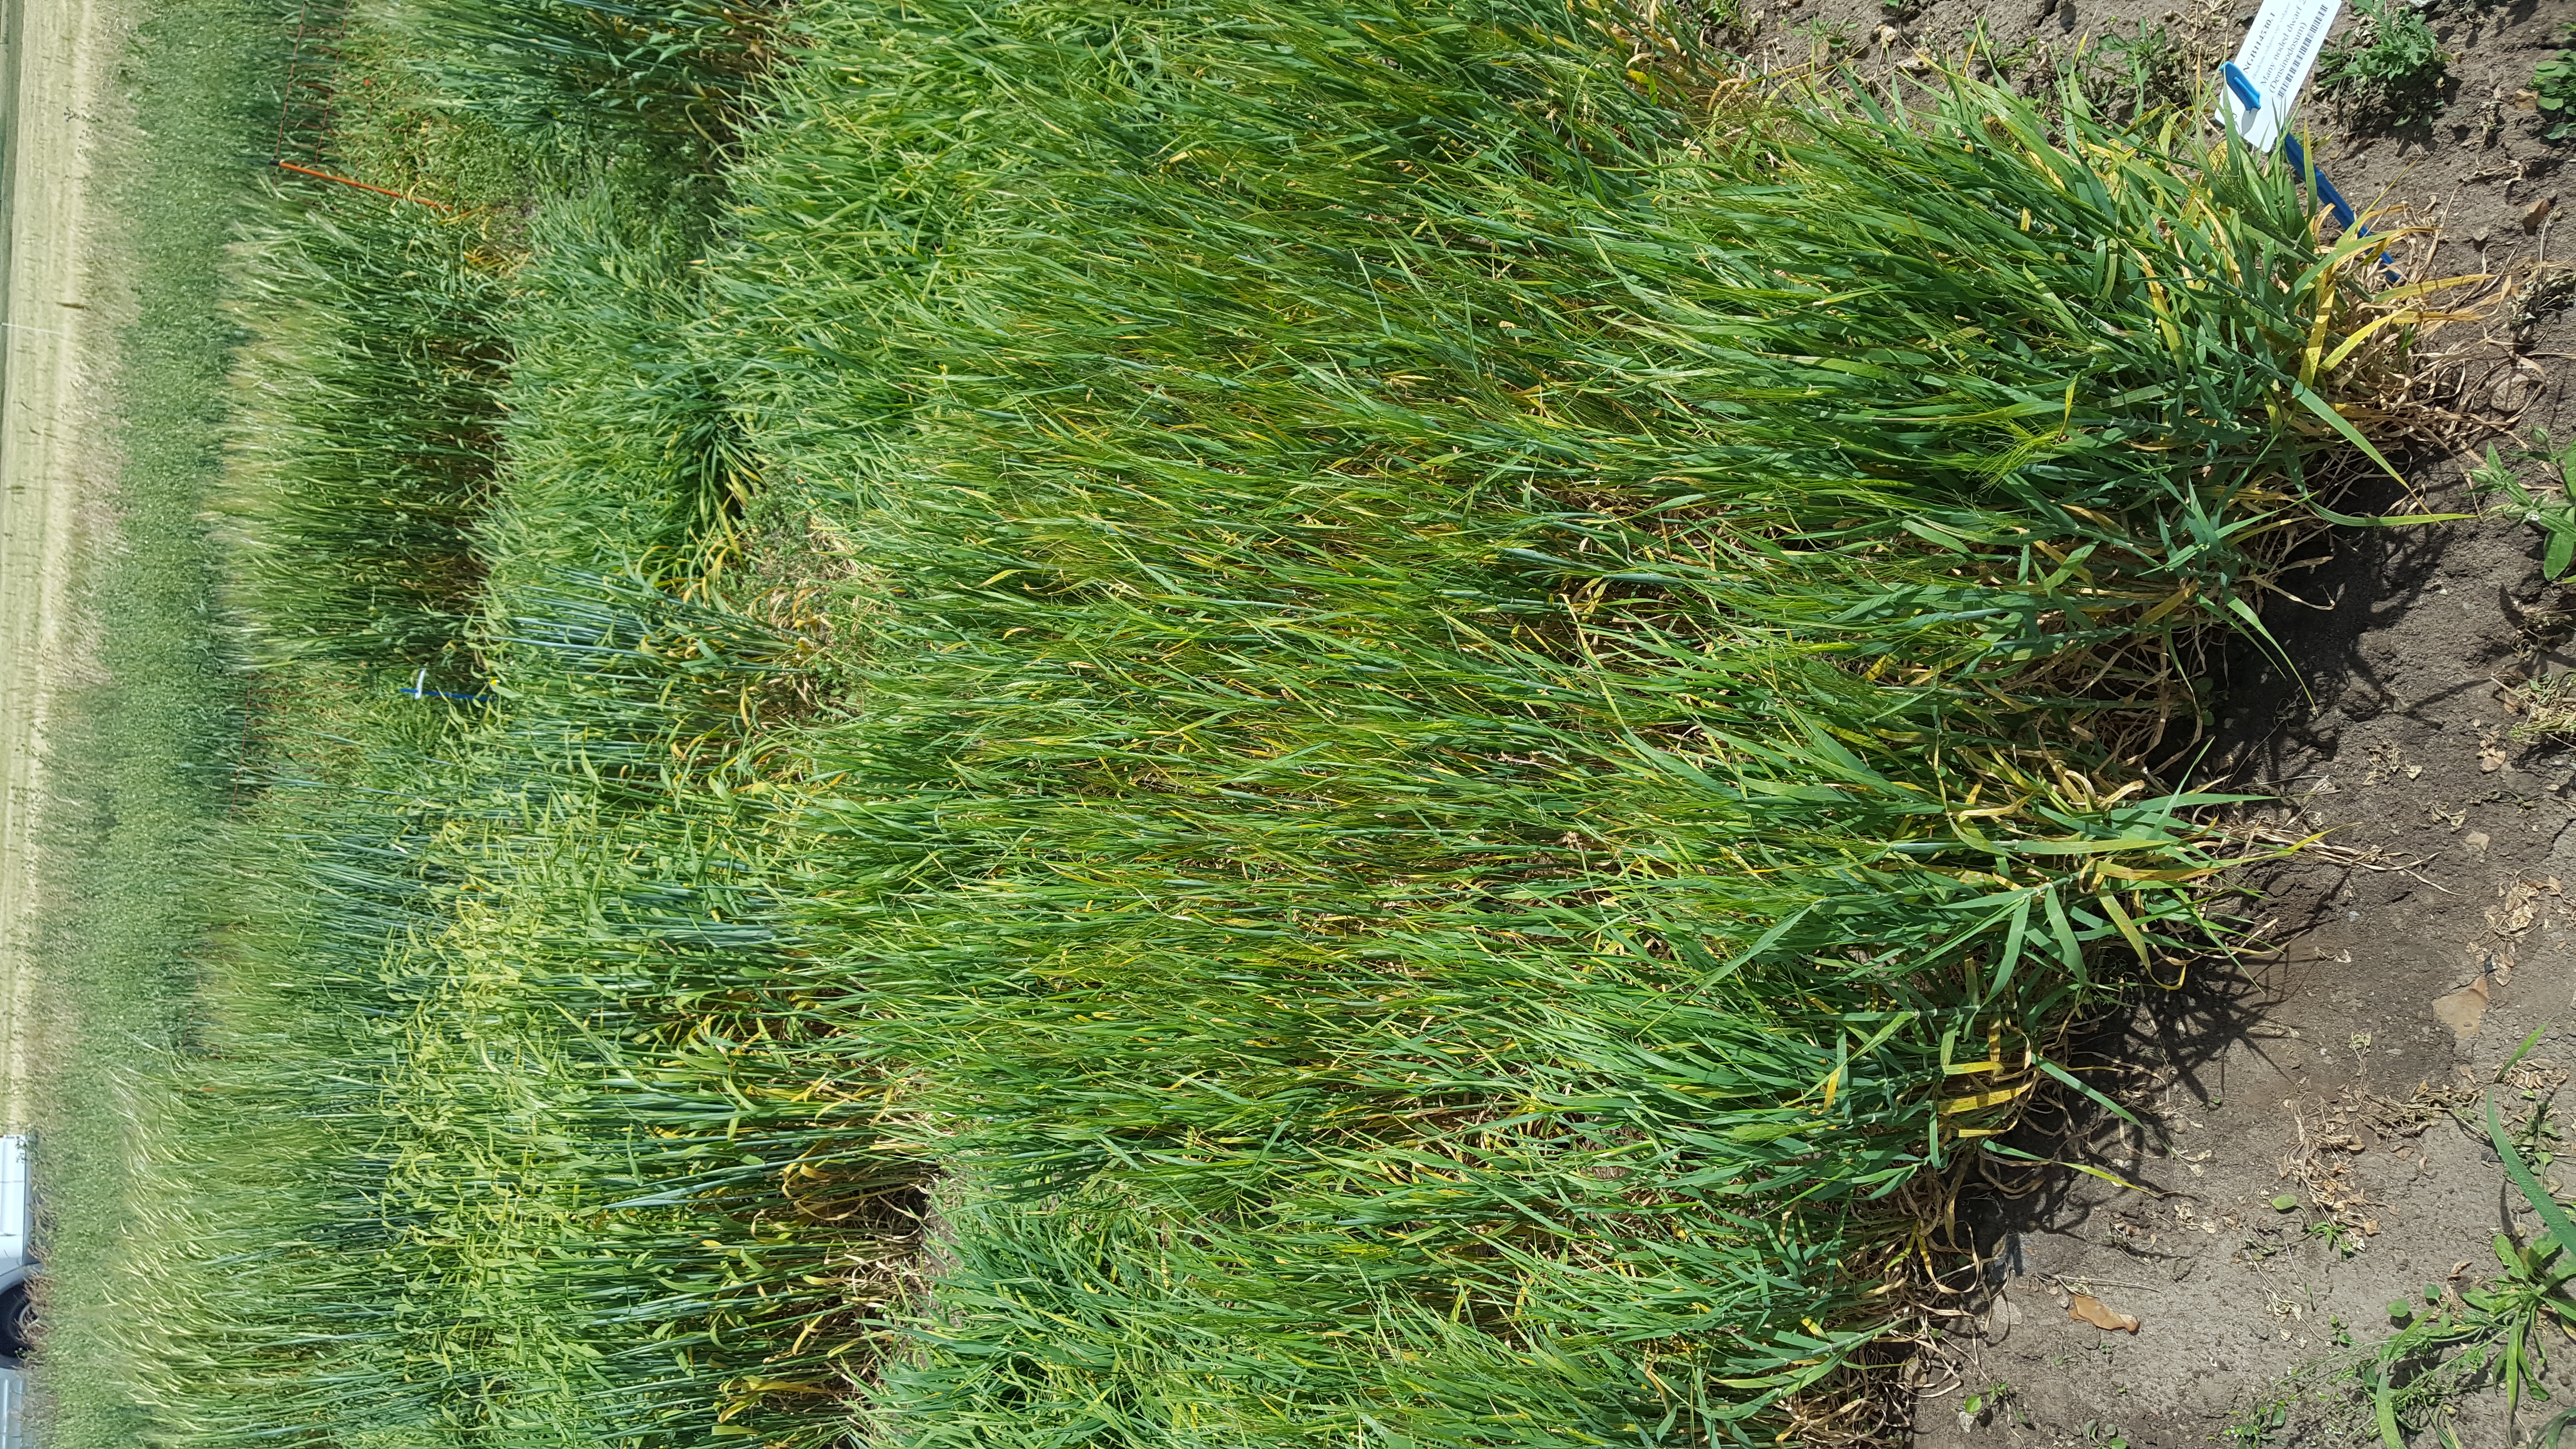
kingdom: Plantae
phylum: Tracheophyta
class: Liliopsida
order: Poales
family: Poaceae
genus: Hordeum
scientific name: Hordeum vulgare
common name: Common barley
